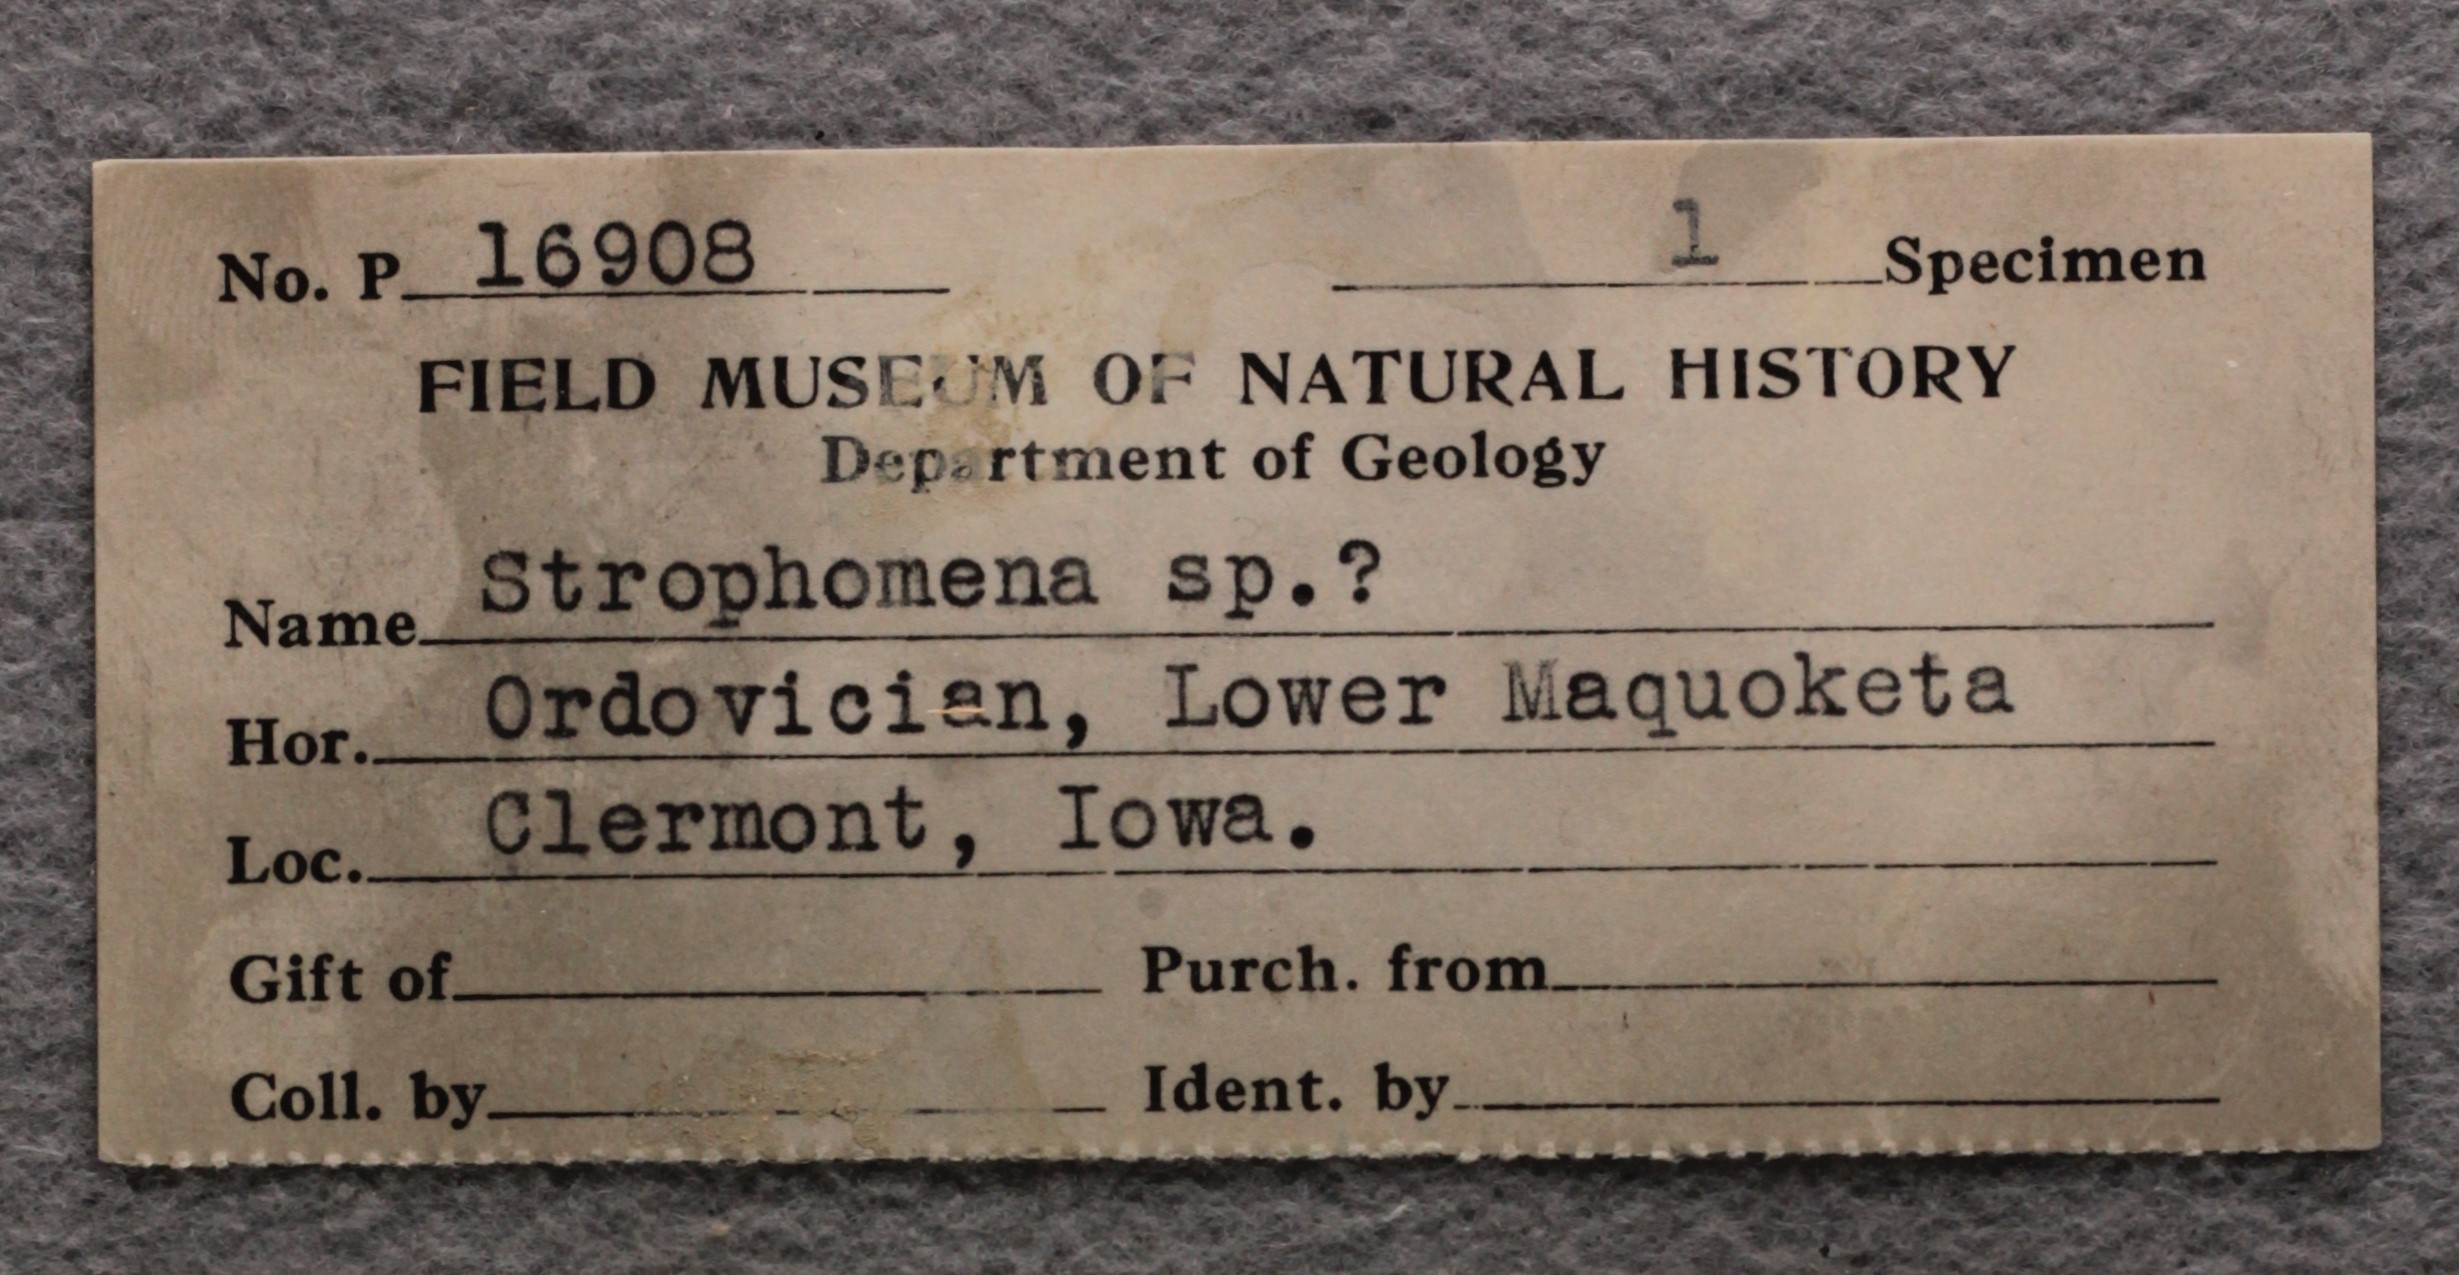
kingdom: Animalia
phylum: Brachiopoda
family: Strophomenidae
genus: Strophomena
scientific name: Strophomena
